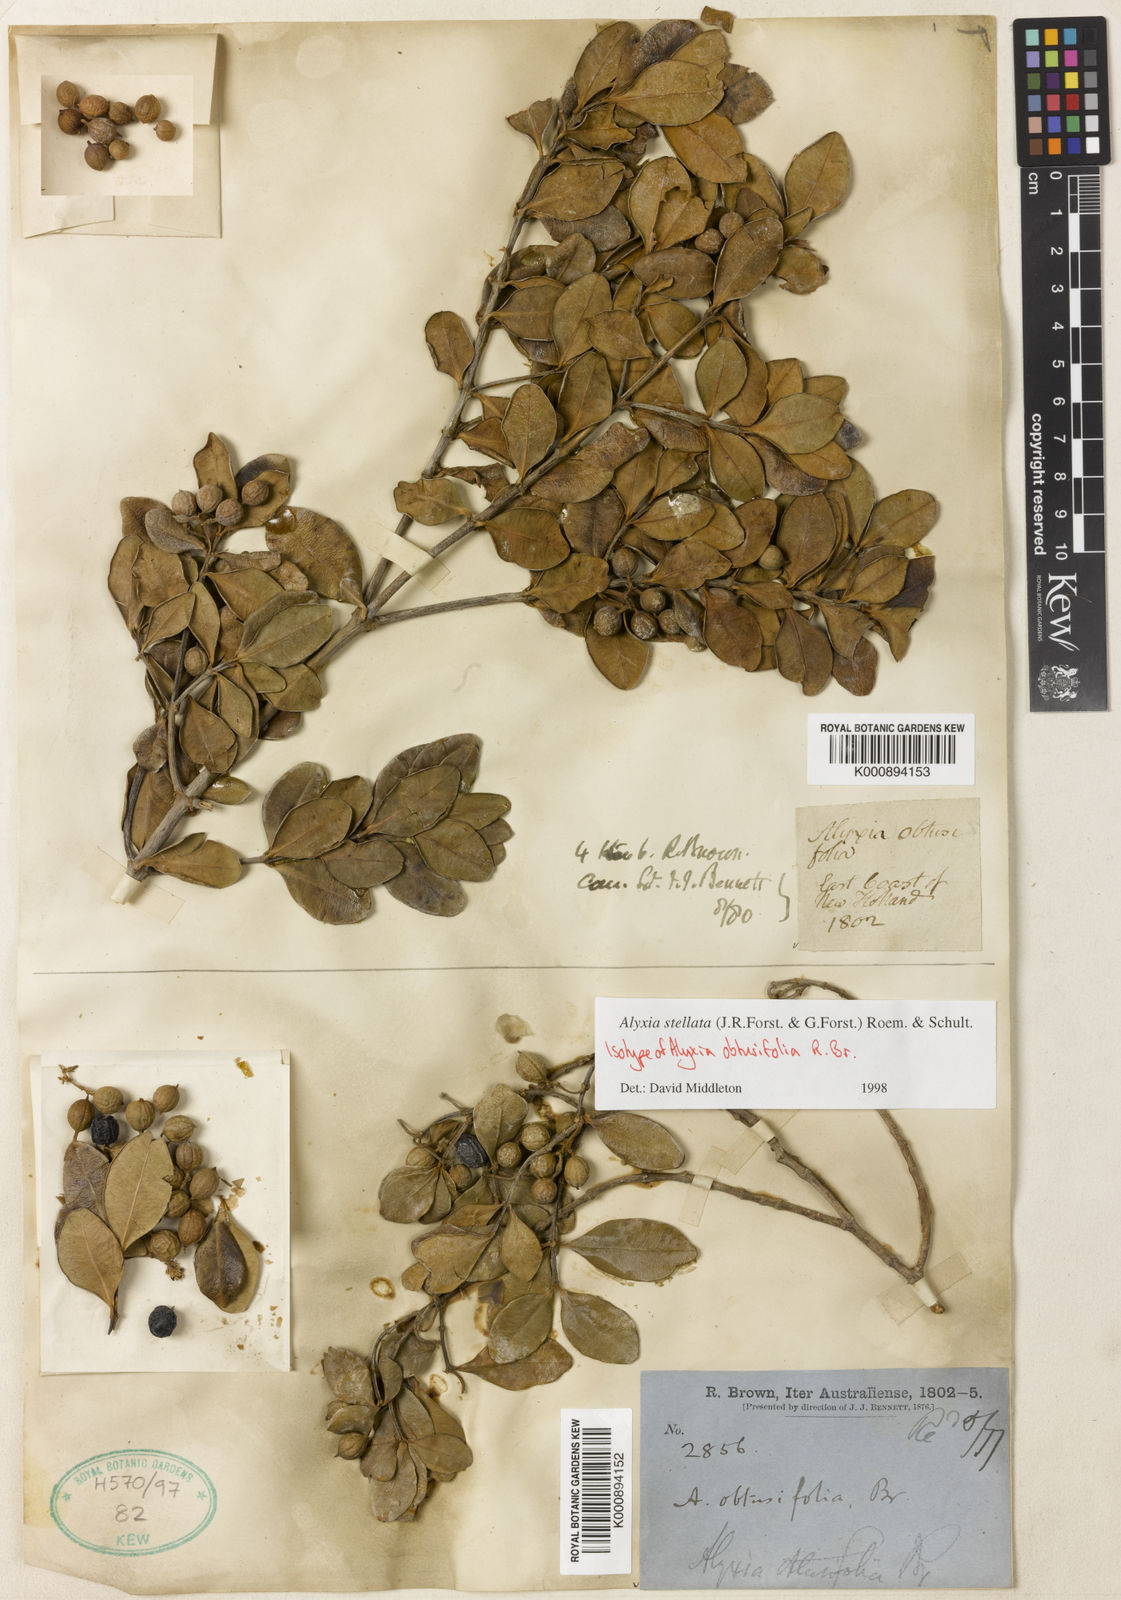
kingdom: Plantae
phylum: Tracheophyta
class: Magnoliopsida
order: Gentianales
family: Apocynaceae
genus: Alyxia
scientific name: Alyxia stellata
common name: Maile
